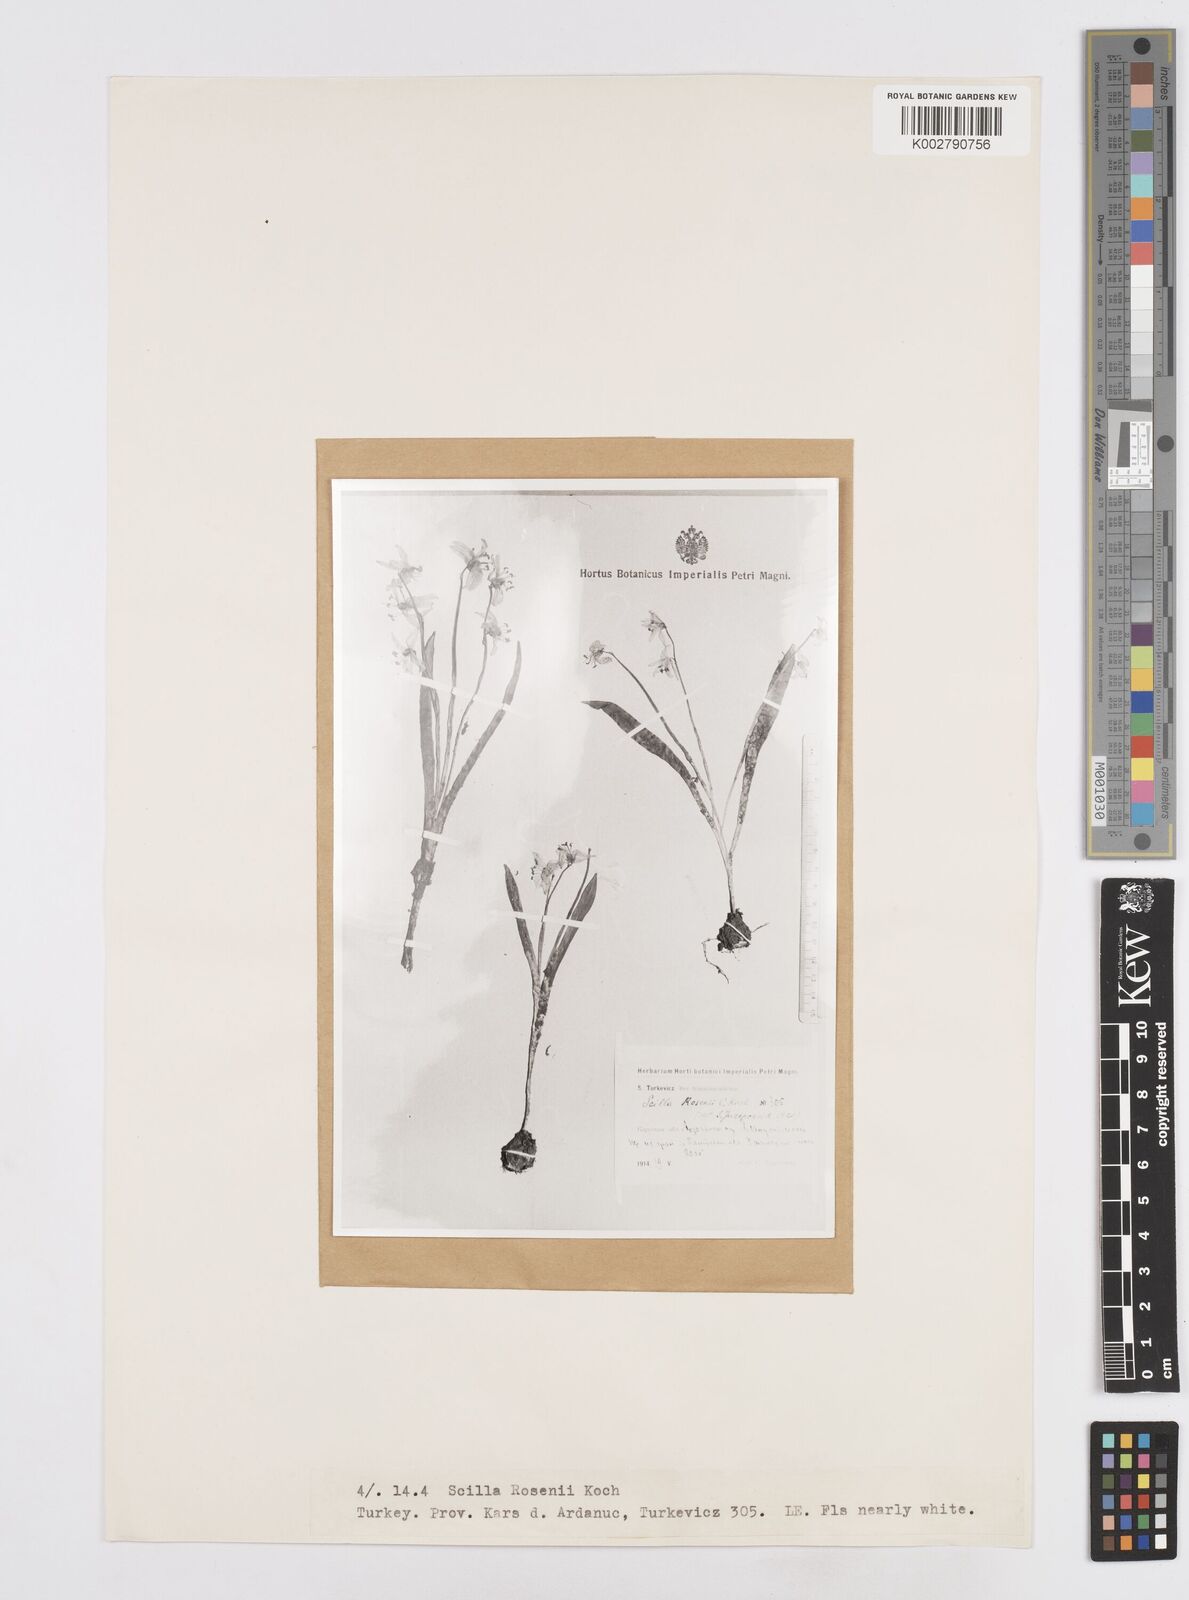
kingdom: Plantae
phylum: Tracheophyta
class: Liliopsida
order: Asparagales
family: Asparagaceae
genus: Scilla
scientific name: Scilla rosenii
